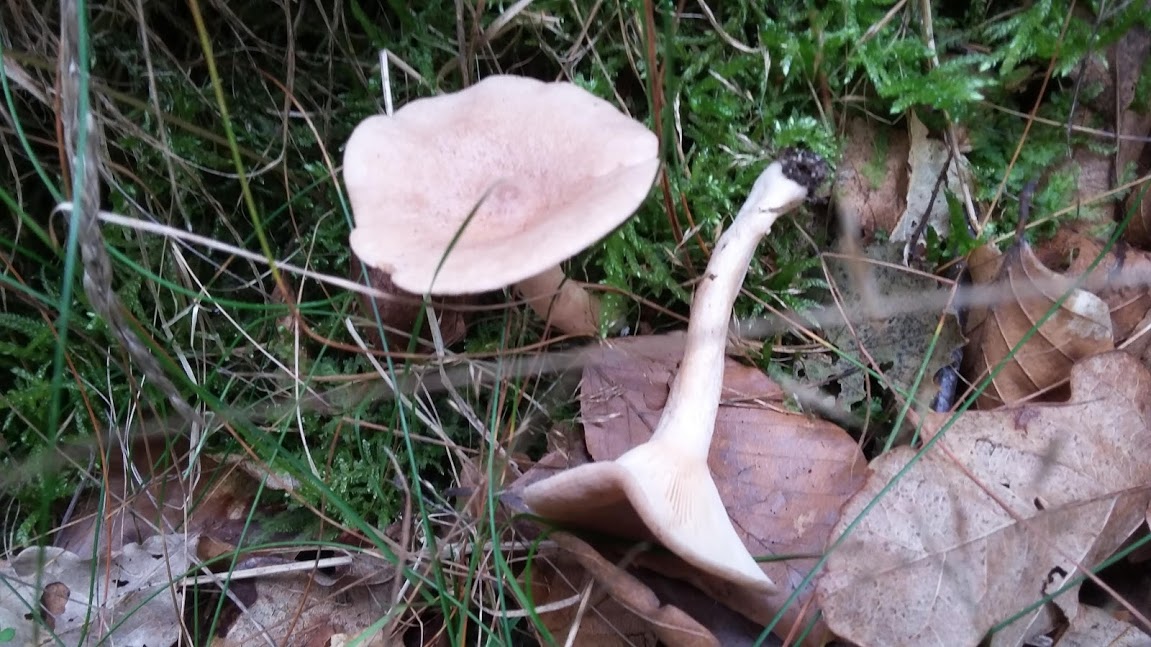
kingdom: Fungi
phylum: Basidiomycota
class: Agaricomycetes
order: Russulales
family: Russulaceae
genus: Lactarius
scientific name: Lactarius glyciosmus
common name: kokos-mælkehat
